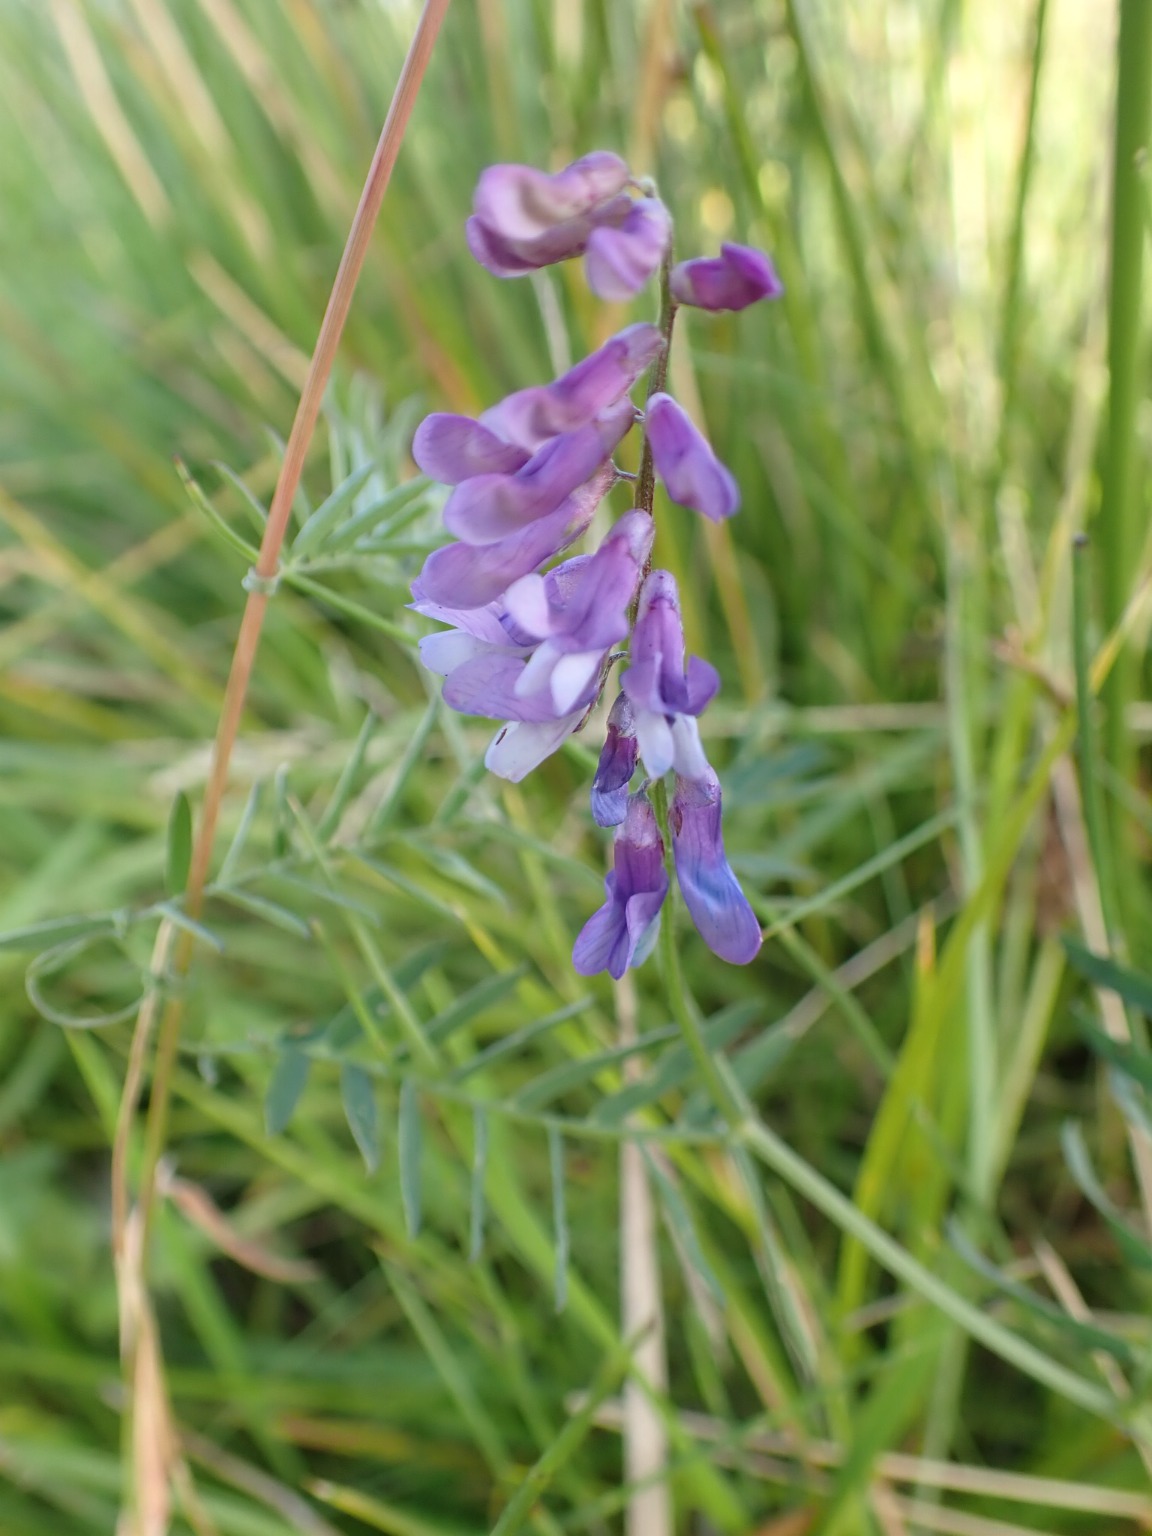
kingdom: Plantae
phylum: Tracheophyta
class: Magnoliopsida
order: Fabales
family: Fabaceae
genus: Vicia
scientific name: Vicia cracca
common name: Muse-vikke
